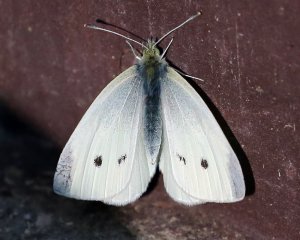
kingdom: Animalia
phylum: Arthropoda
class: Insecta
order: Lepidoptera
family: Pieridae
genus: Pieris
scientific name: Pieris rapae
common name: Cabbage White
